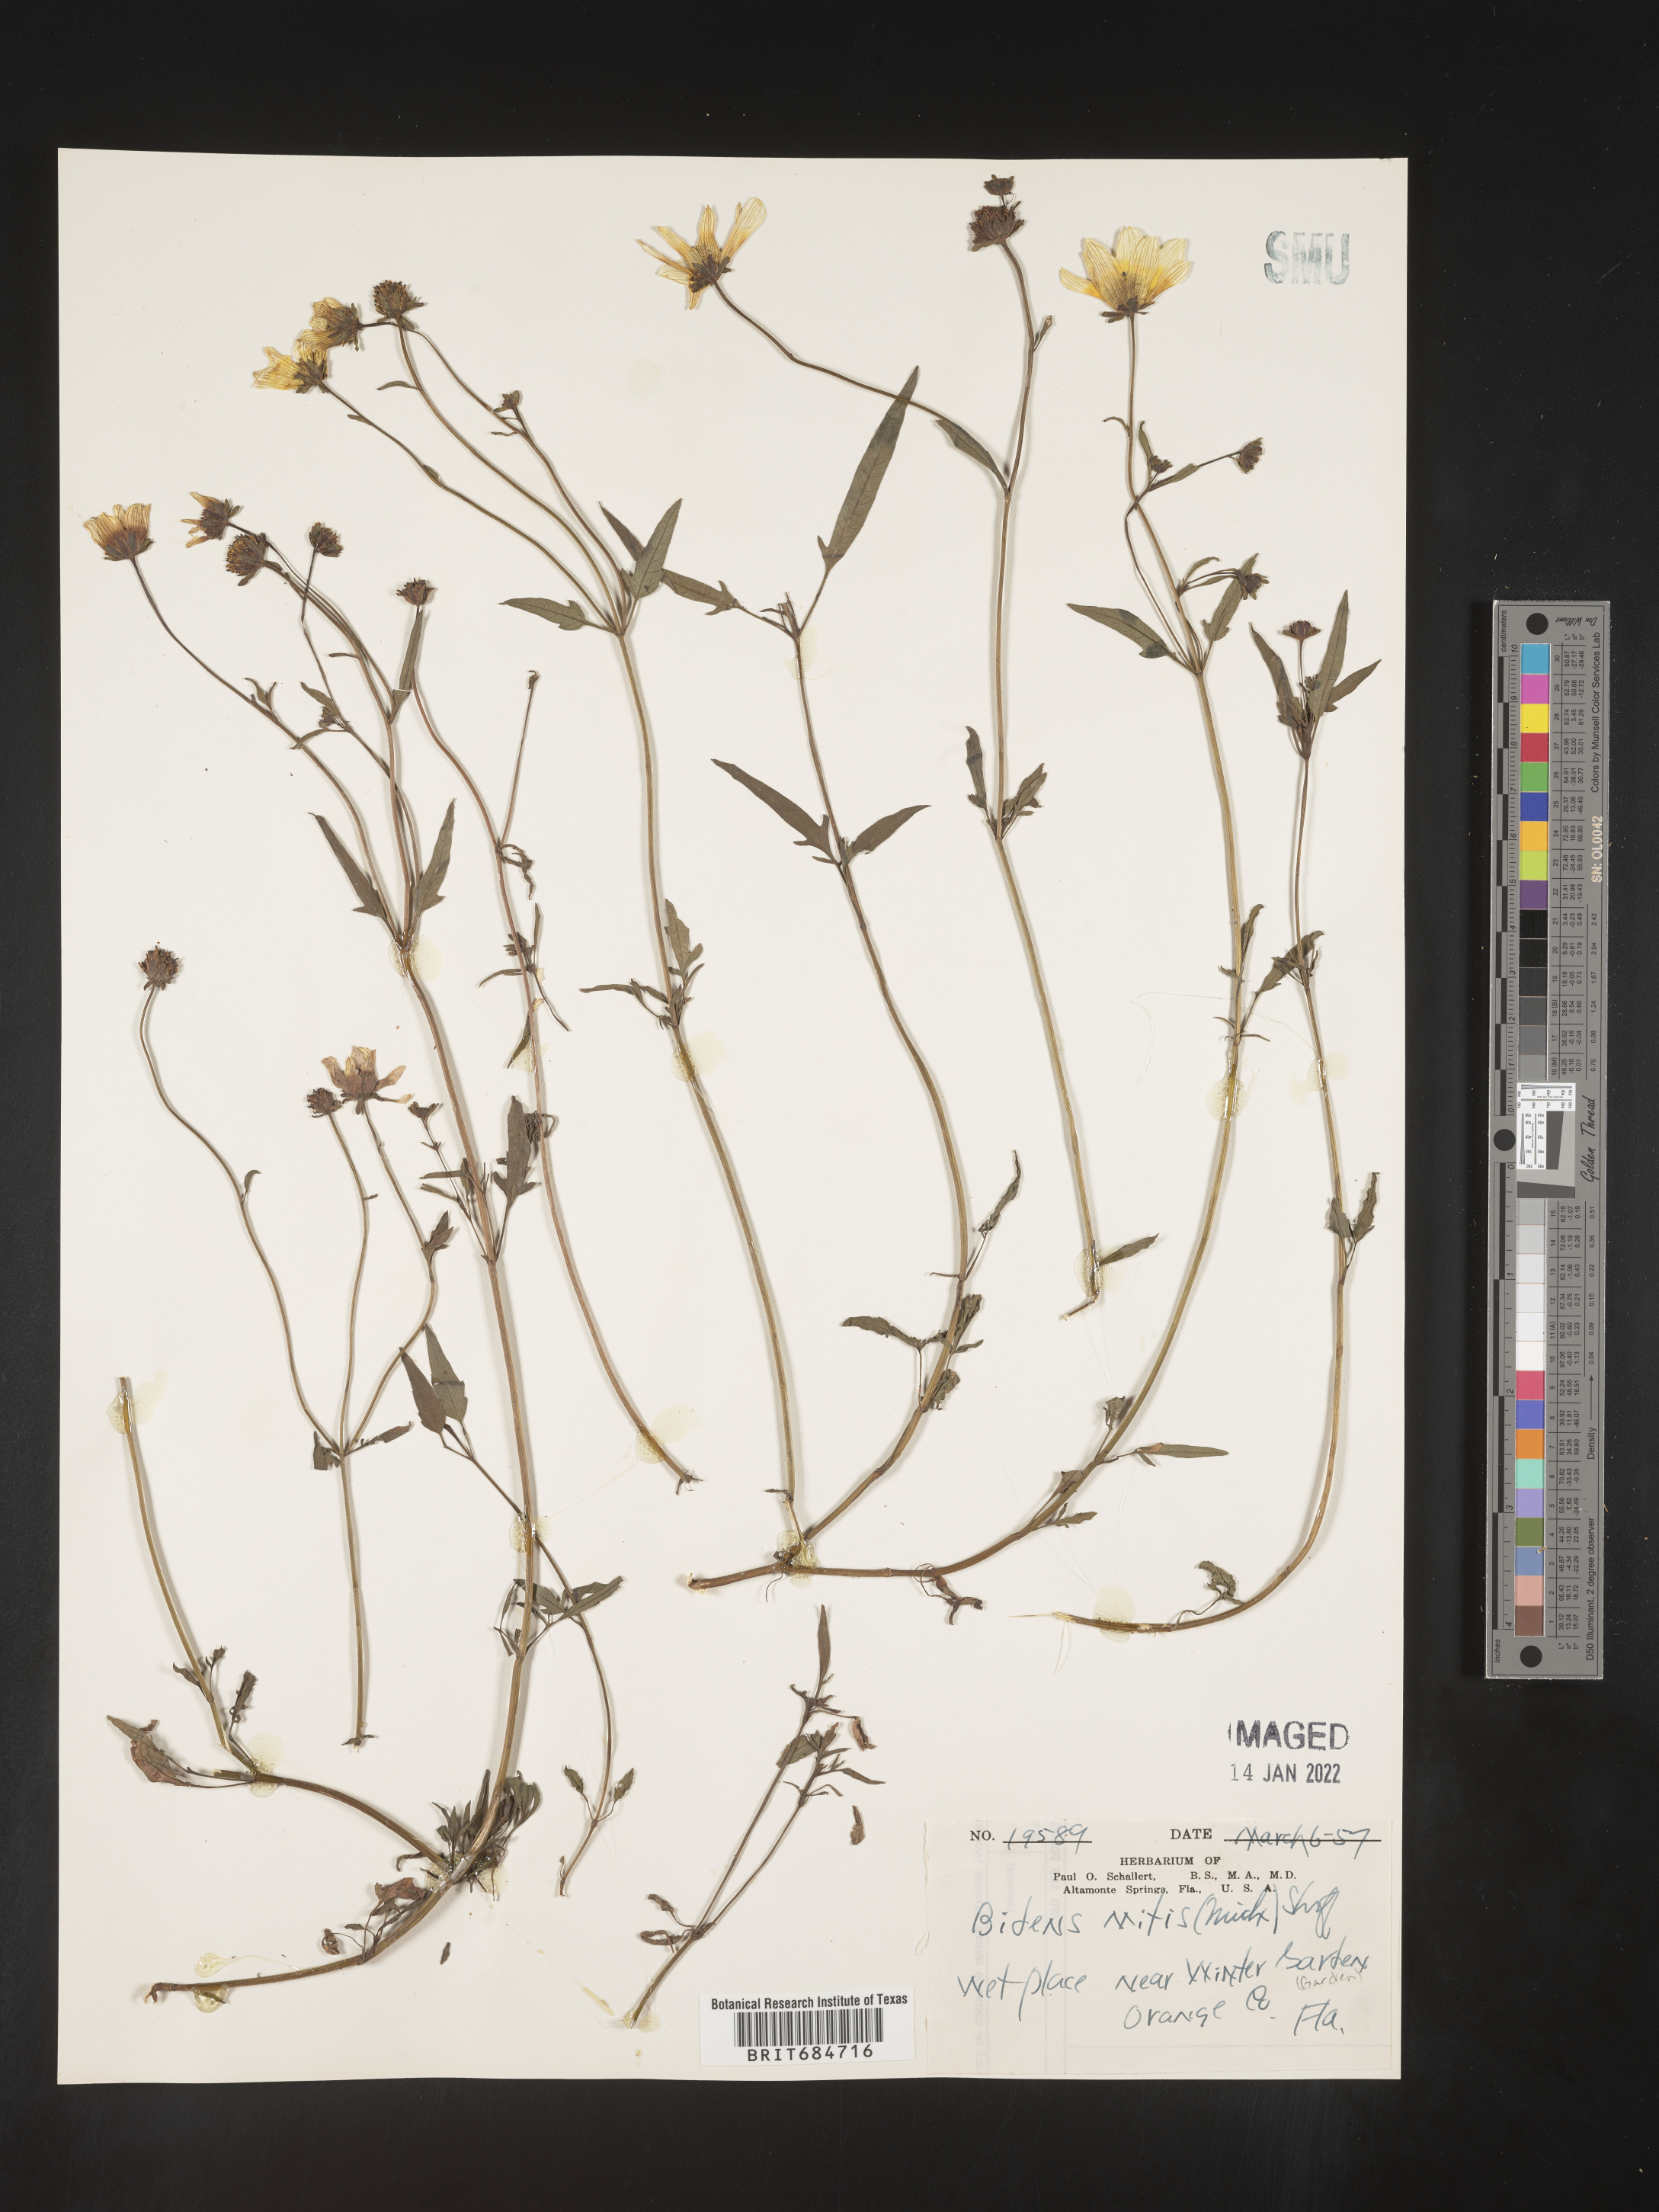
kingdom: Plantae
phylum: Tracheophyta
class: Magnoliopsida
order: Asterales
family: Asteraceae
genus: Bidens
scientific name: Bidens mitis
